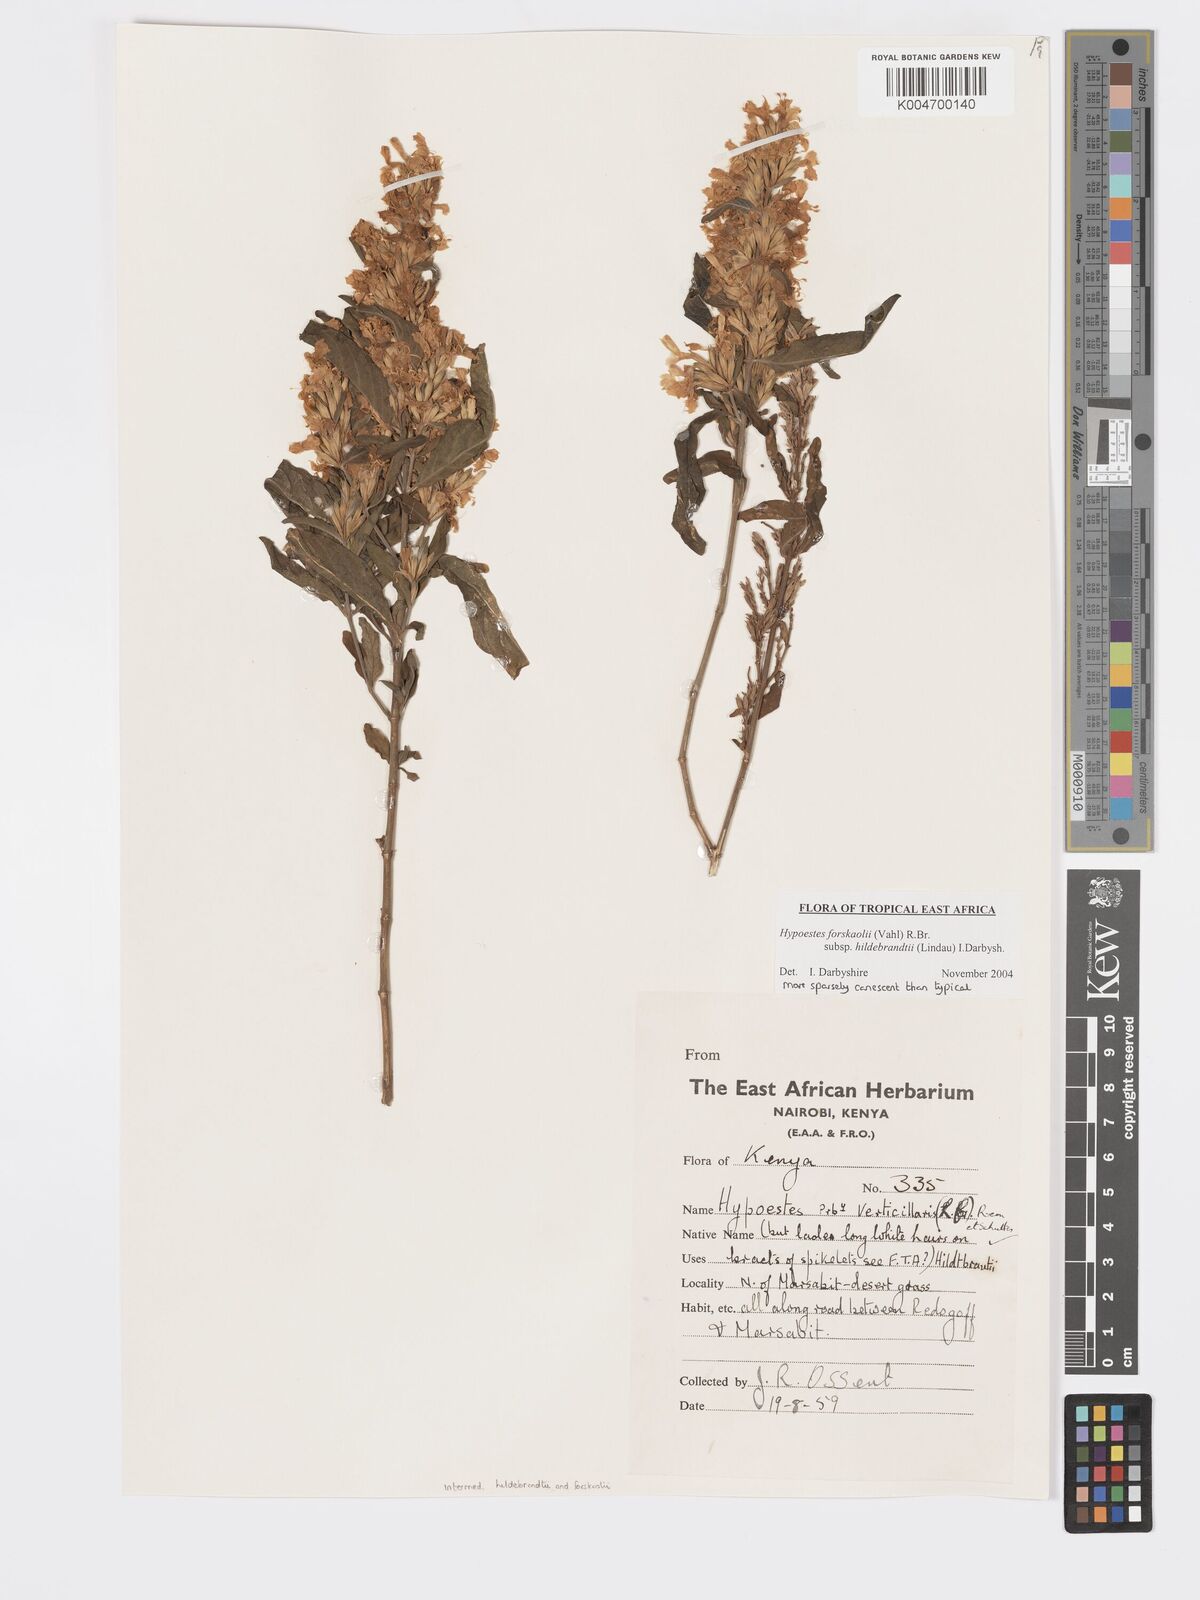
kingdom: Plantae
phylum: Tracheophyta
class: Magnoliopsida
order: Lamiales
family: Acanthaceae
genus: Hypoestes
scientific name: Hypoestes forskaolii
